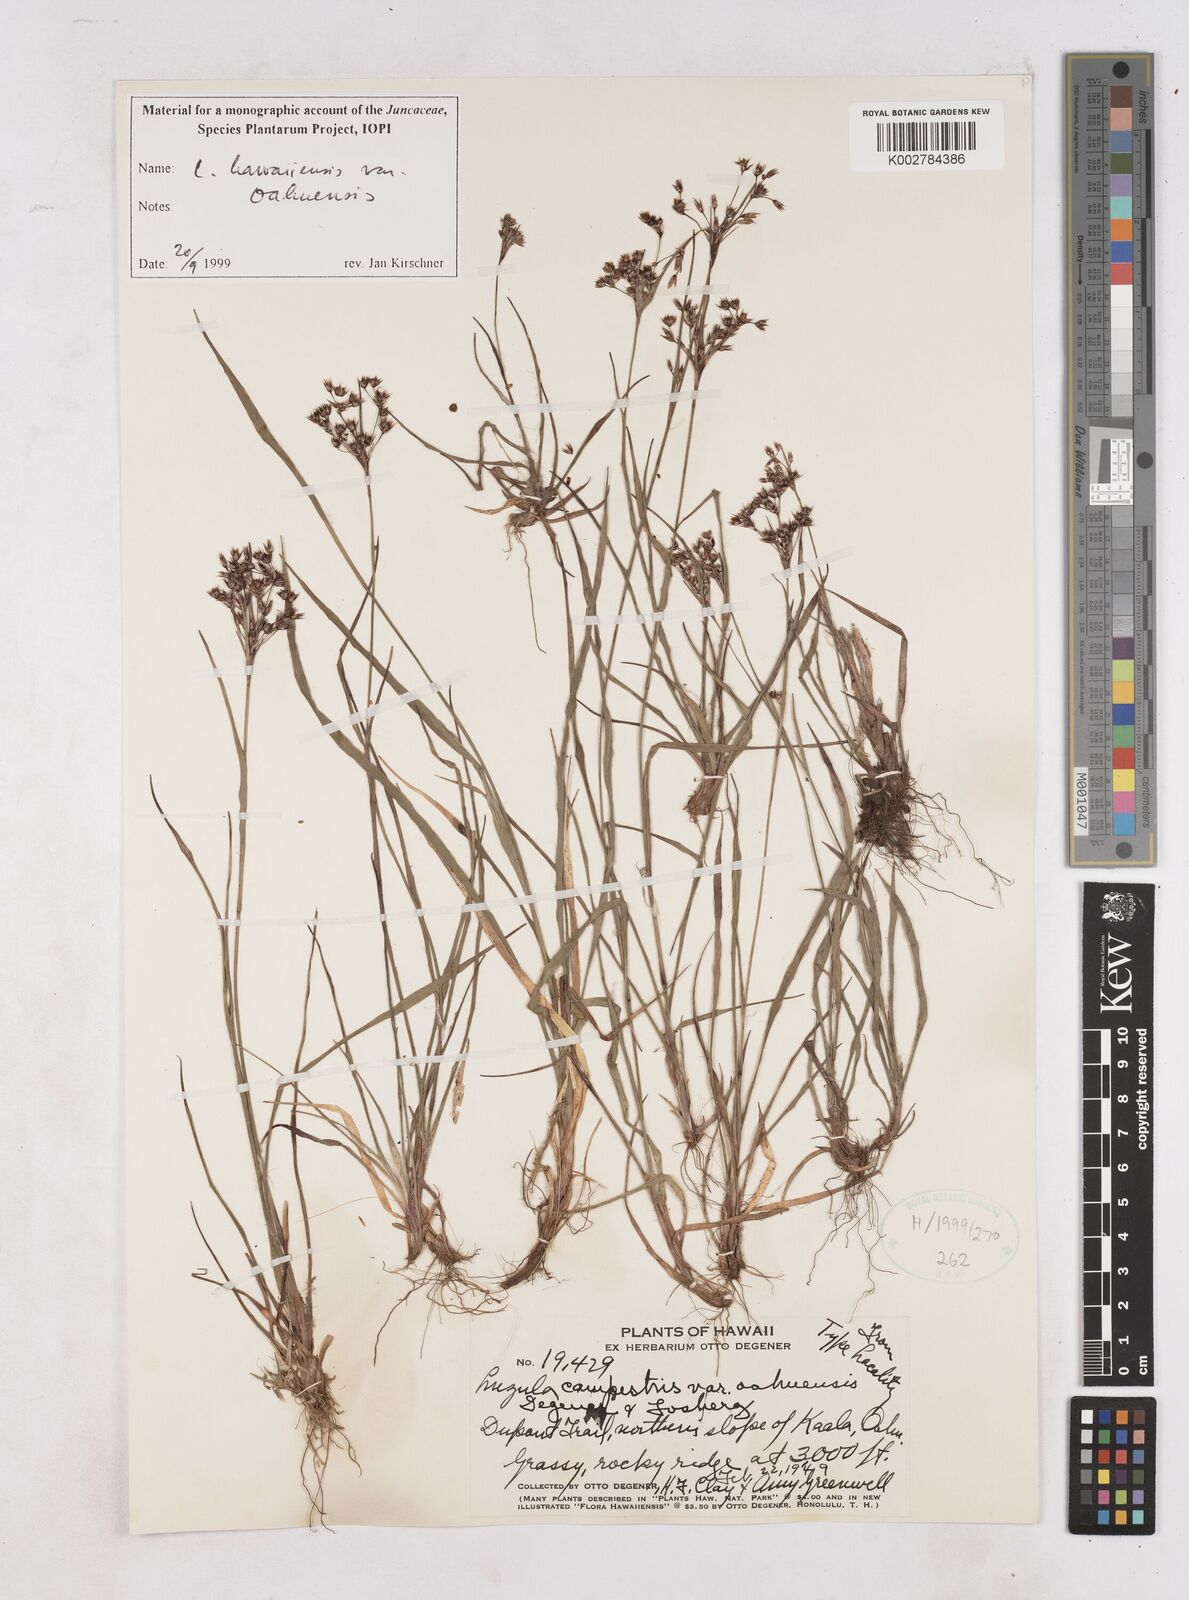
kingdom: Plantae
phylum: Tracheophyta
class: Liliopsida
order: Poales
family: Juncaceae
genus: Luzula
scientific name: Luzula campestris
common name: Field wood-rush
